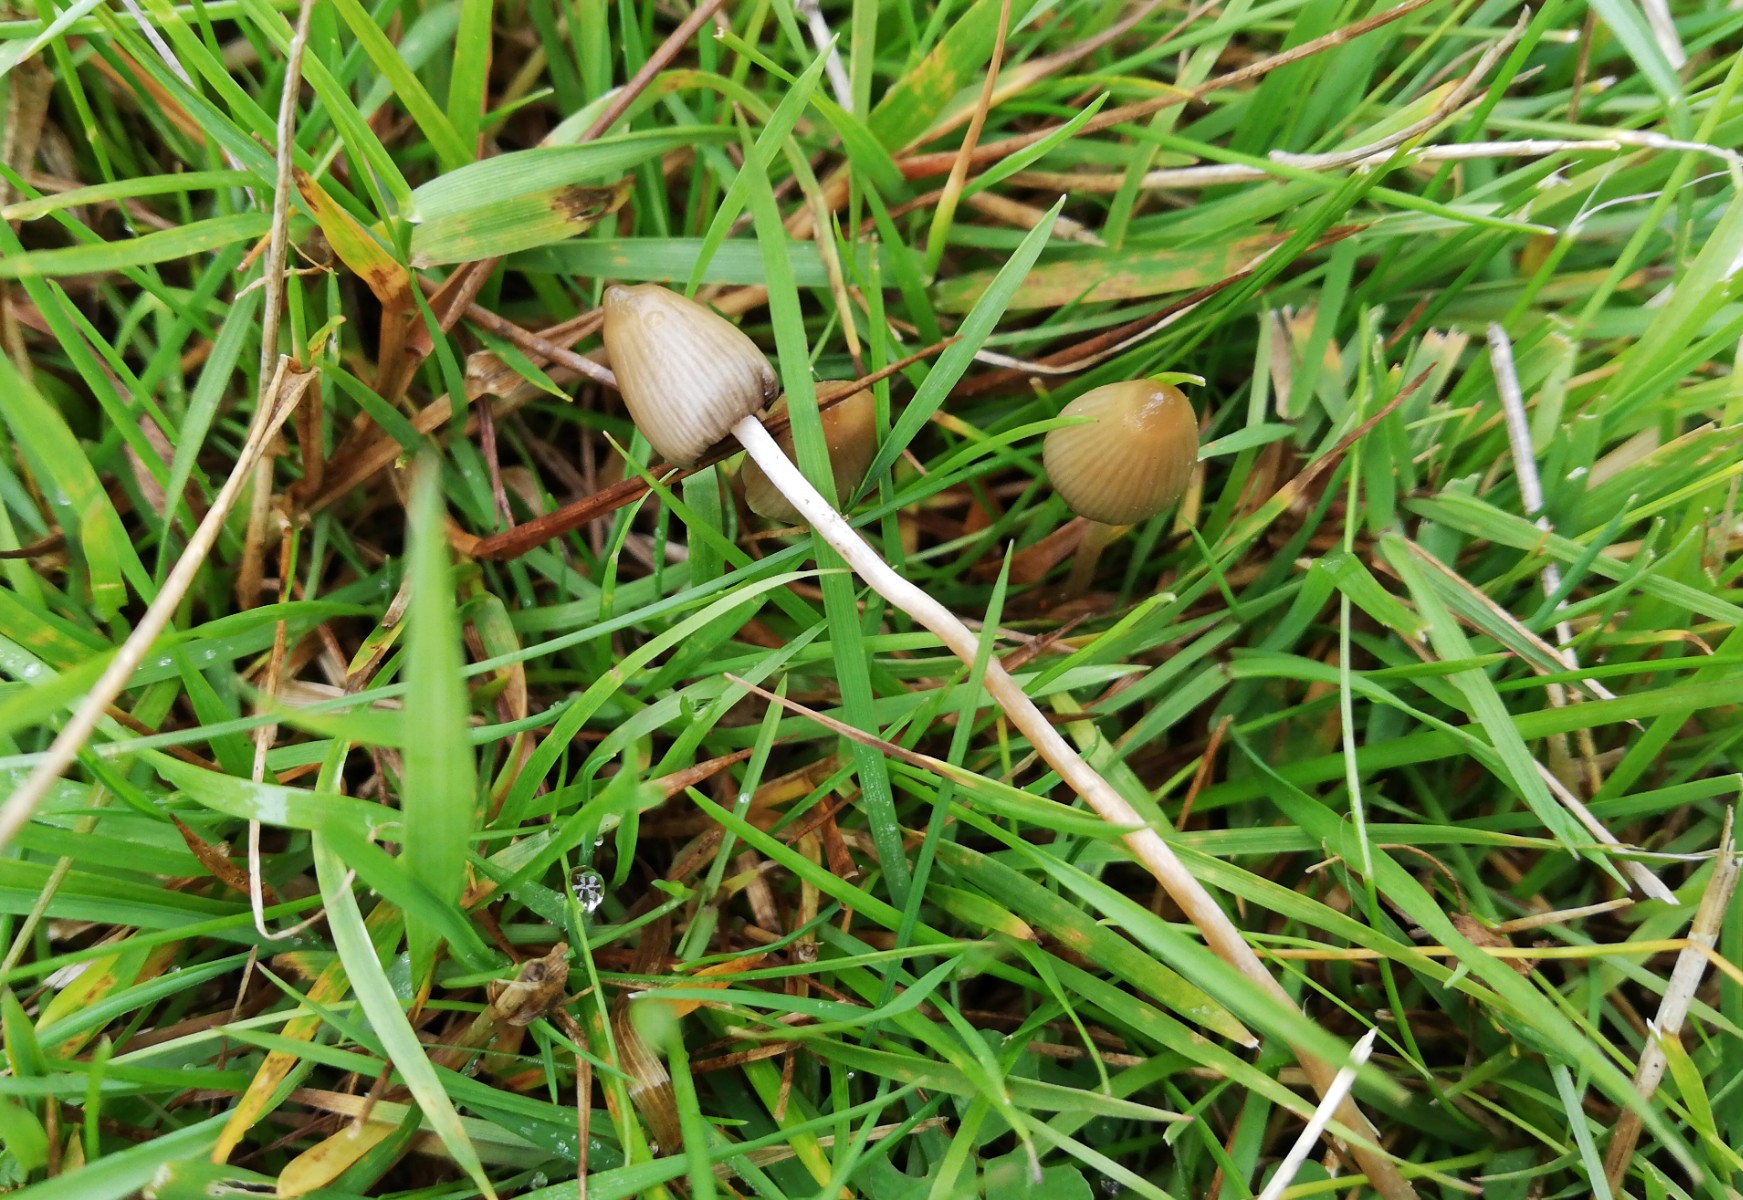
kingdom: Fungi
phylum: Basidiomycota
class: Agaricomycetes
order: Agaricales
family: Hymenogastraceae
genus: Psilocybe
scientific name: Psilocybe semilanceata
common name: spids nøgenhat
